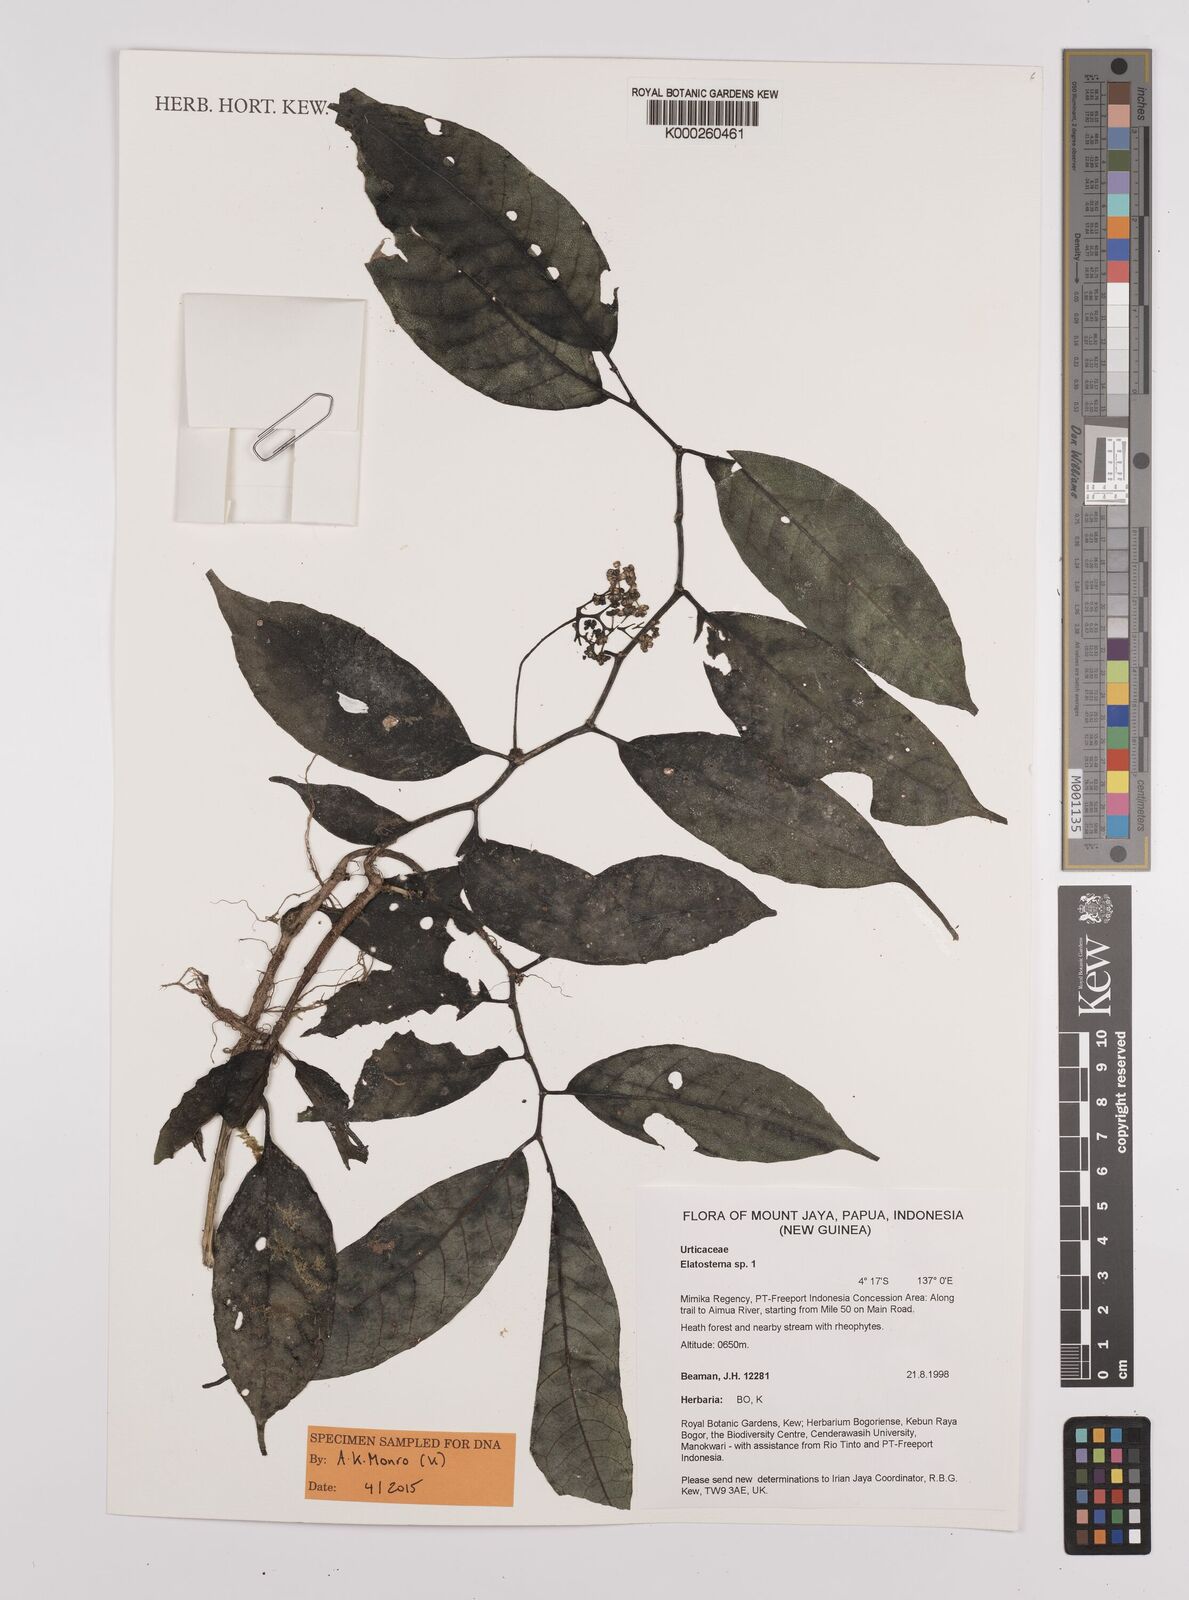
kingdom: Plantae
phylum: Tracheophyta
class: Magnoliopsida
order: Rosales
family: Urticaceae
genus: Elatostema
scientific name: Elatostema
